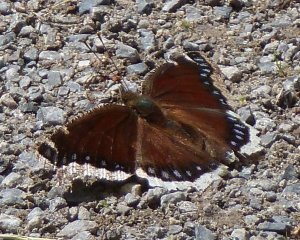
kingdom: Animalia
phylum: Arthropoda
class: Insecta
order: Lepidoptera
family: Nymphalidae
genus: Nymphalis
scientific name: Nymphalis antiopa
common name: Mourning Cloak
